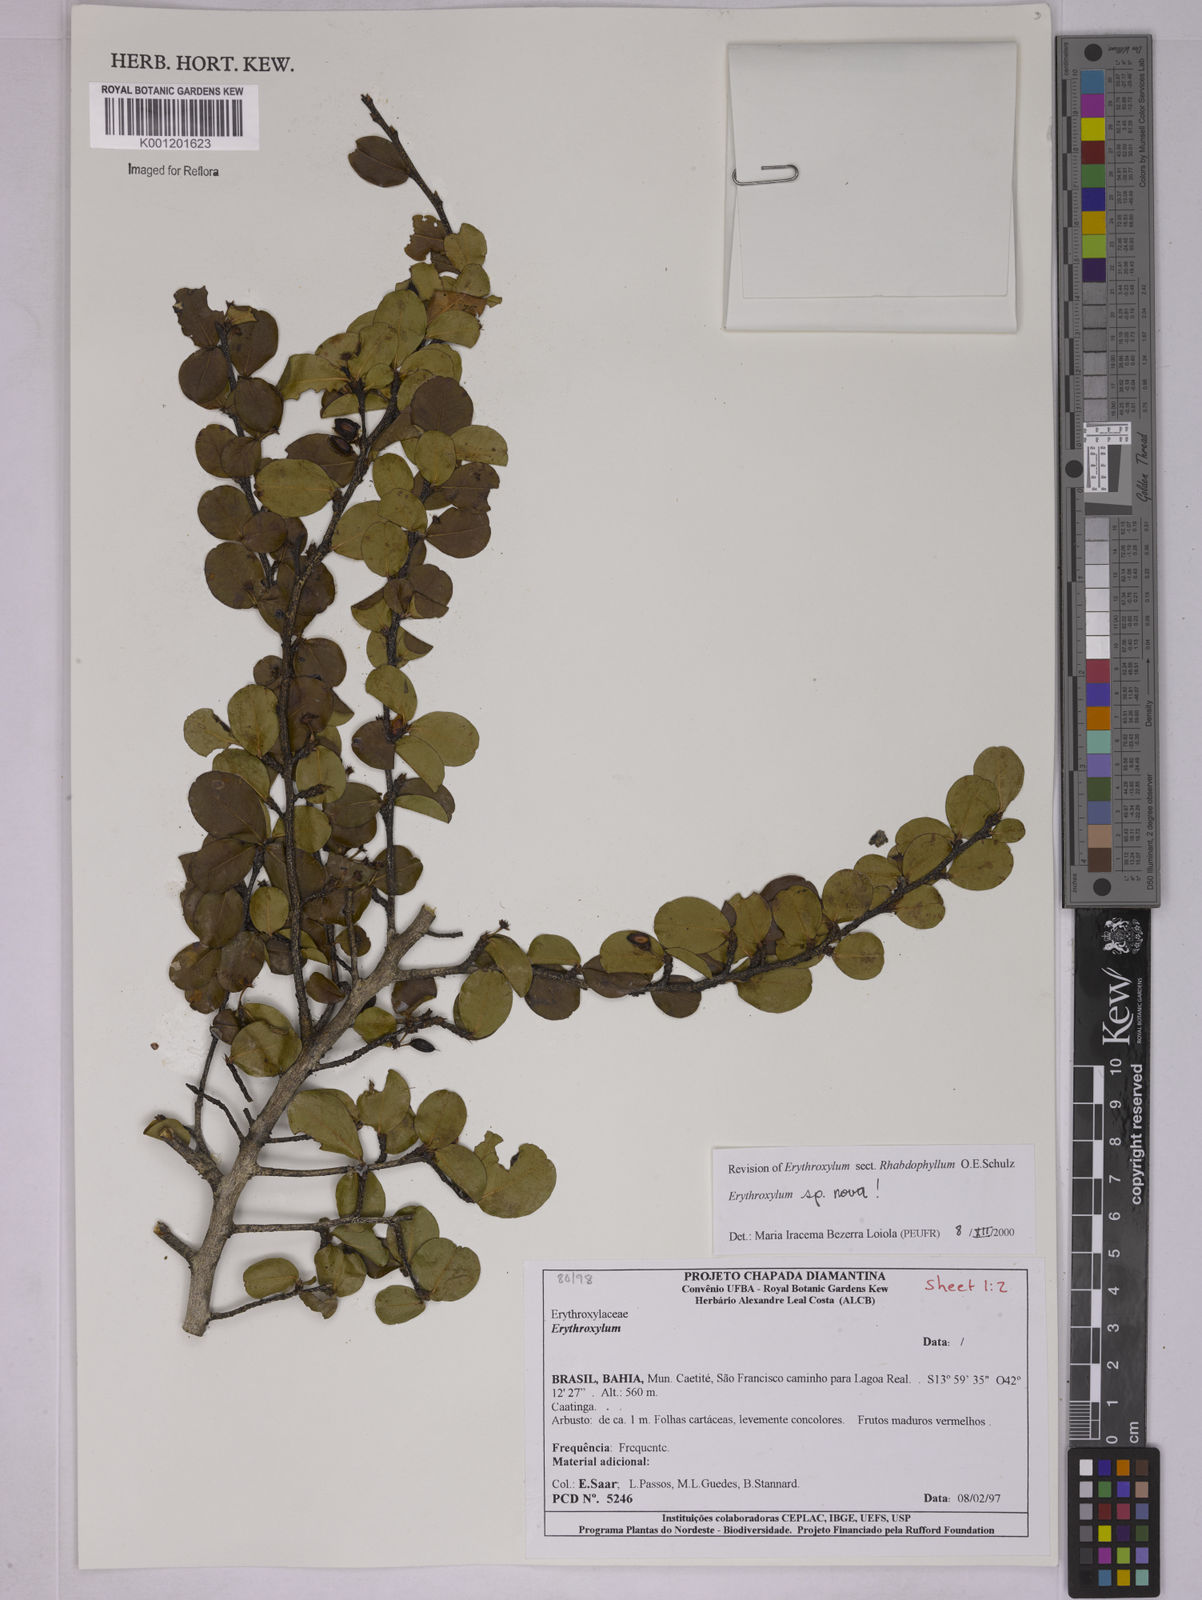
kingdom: Plantae
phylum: Tracheophyta
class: Magnoliopsida
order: Malpighiales
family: Erythroxylaceae
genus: Erythroxylum
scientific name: Erythroxylum
